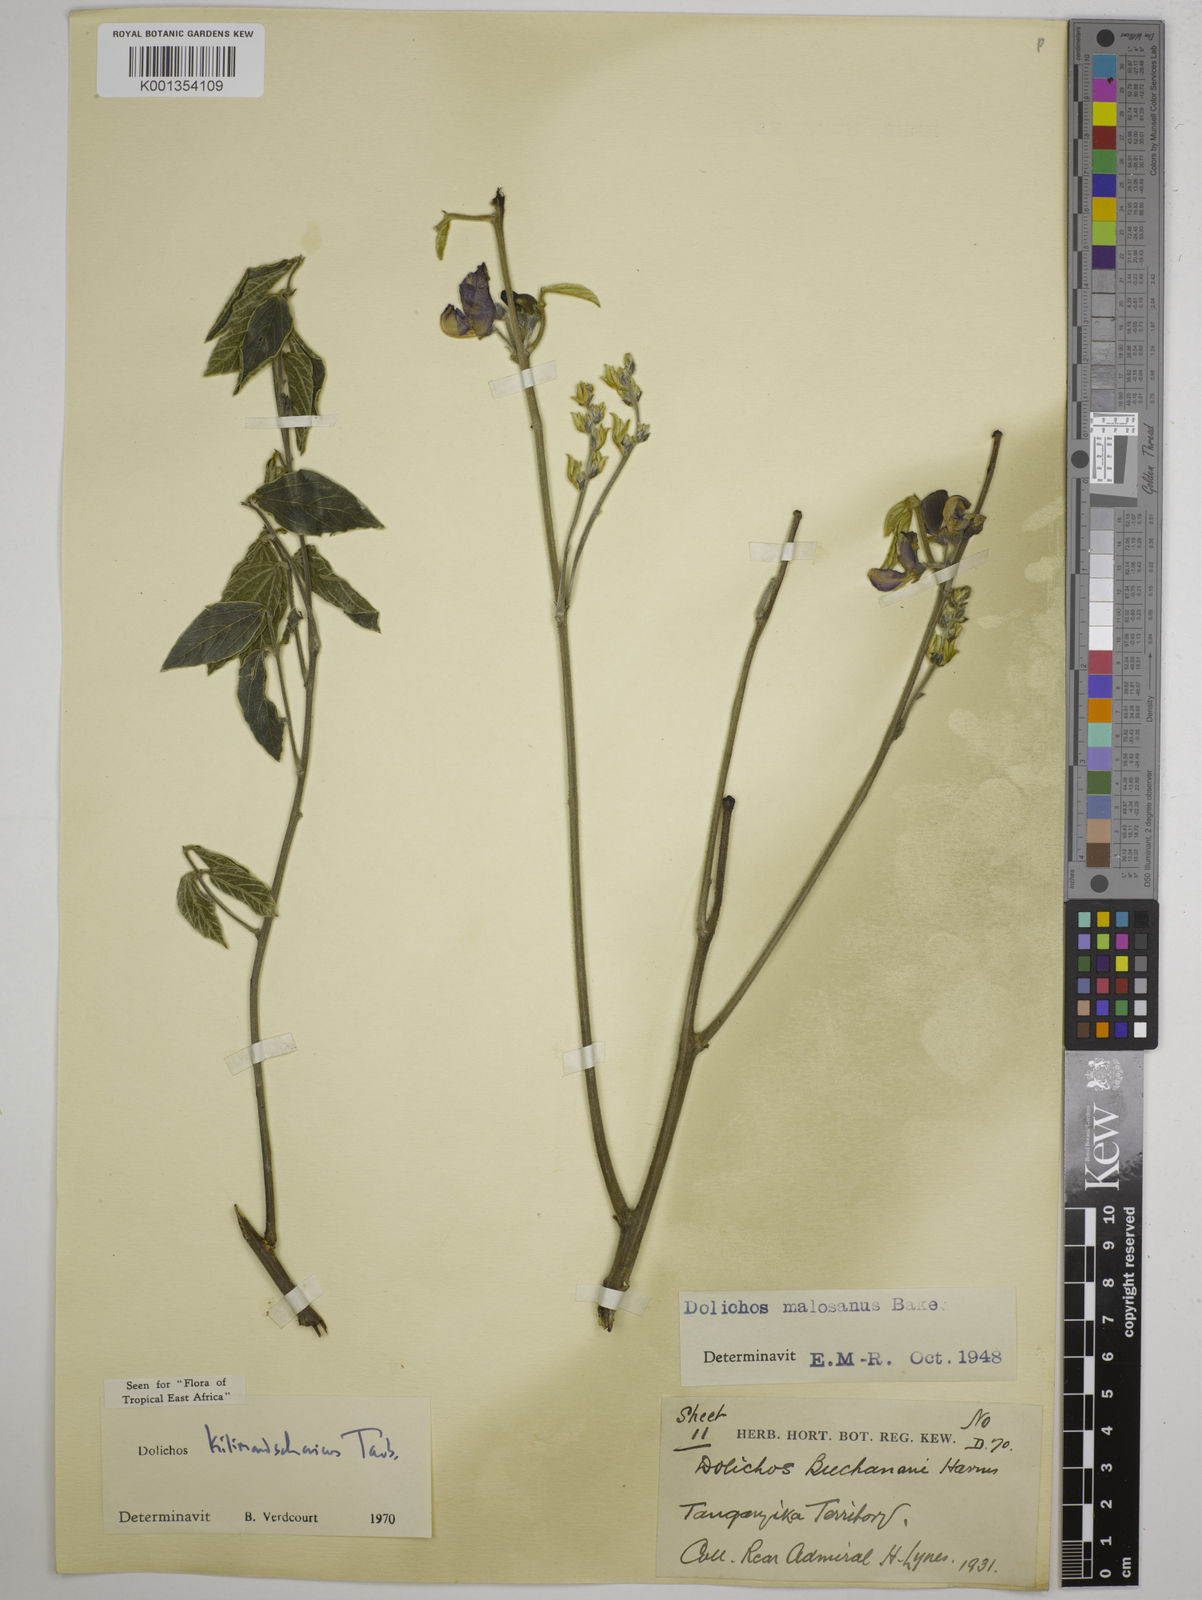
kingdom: Plantae
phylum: Tracheophyta
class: Magnoliopsida
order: Fabales
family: Fabaceae
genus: Dolichos
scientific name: Dolichos kilimandscharicus
